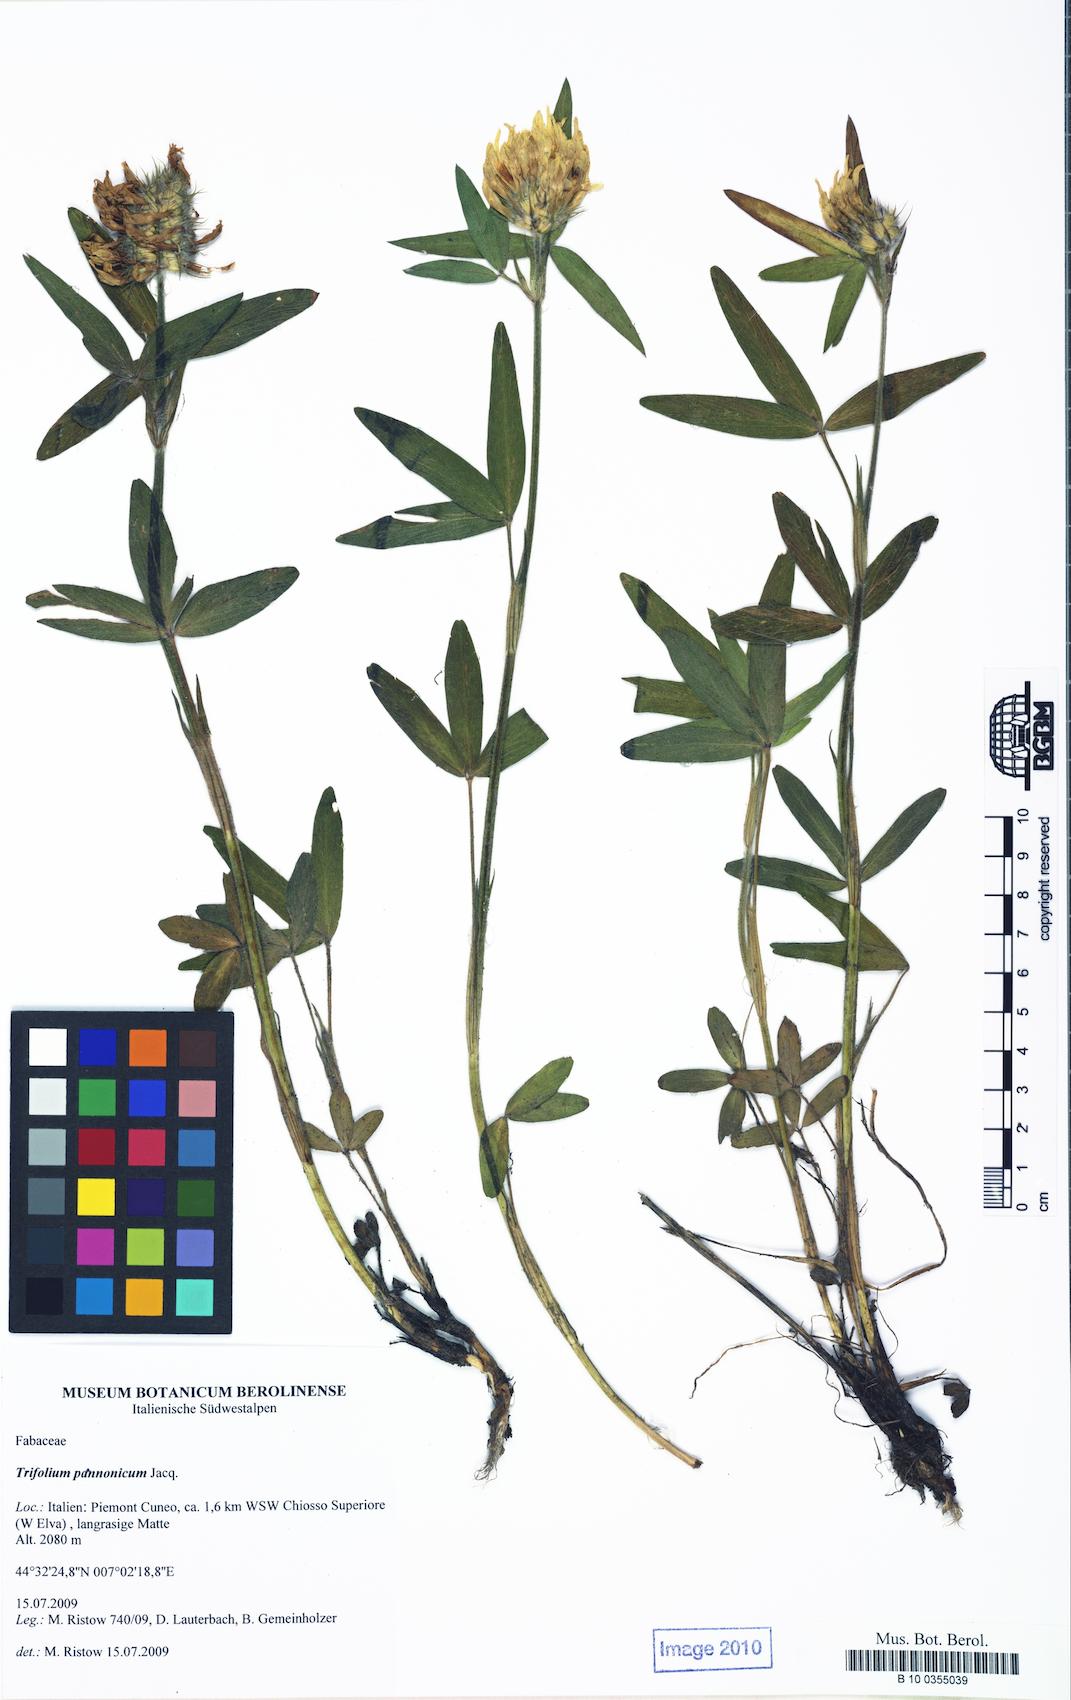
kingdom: Plantae
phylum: Tracheophyta
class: Magnoliopsida
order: Fabales
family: Fabaceae
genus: Trifolium
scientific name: Trifolium pannonicum
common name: Hungarian clover
